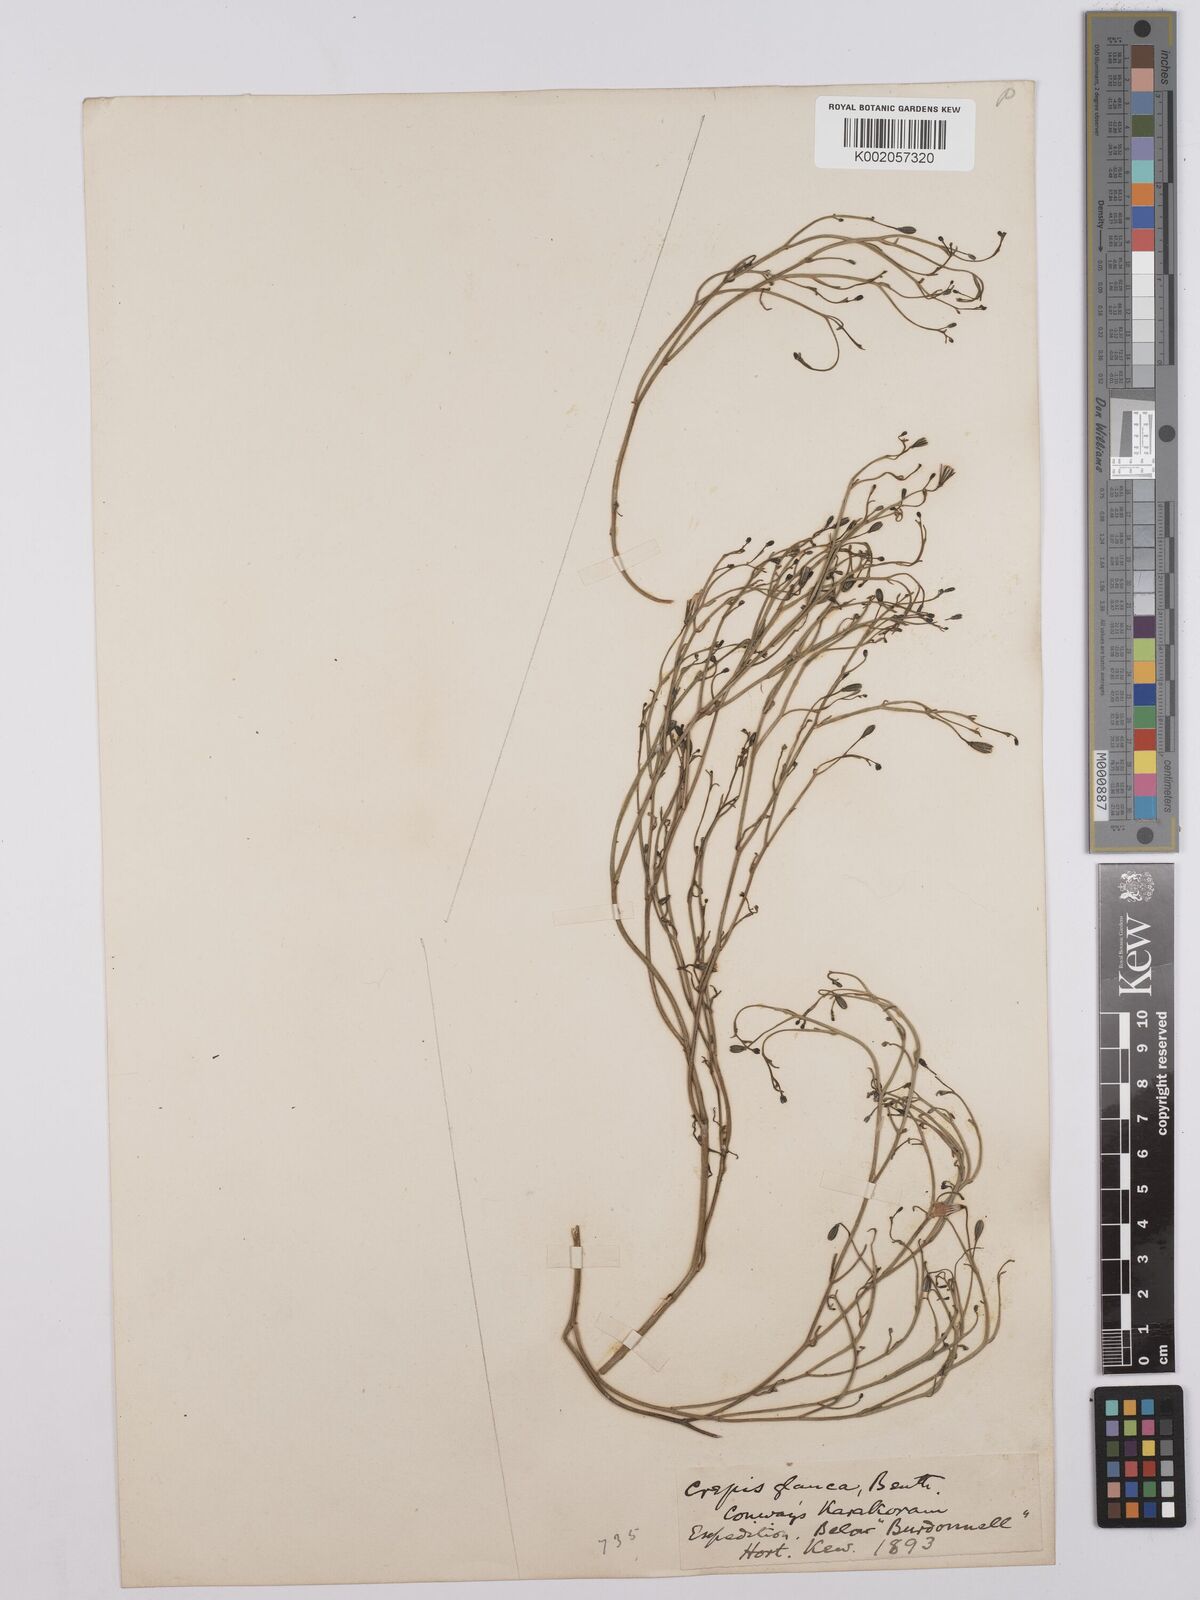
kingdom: Plantae
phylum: Tracheophyta
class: Magnoliopsida
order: Asterales
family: Asteraceae
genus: Askellia
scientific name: Askellia flexuosa
